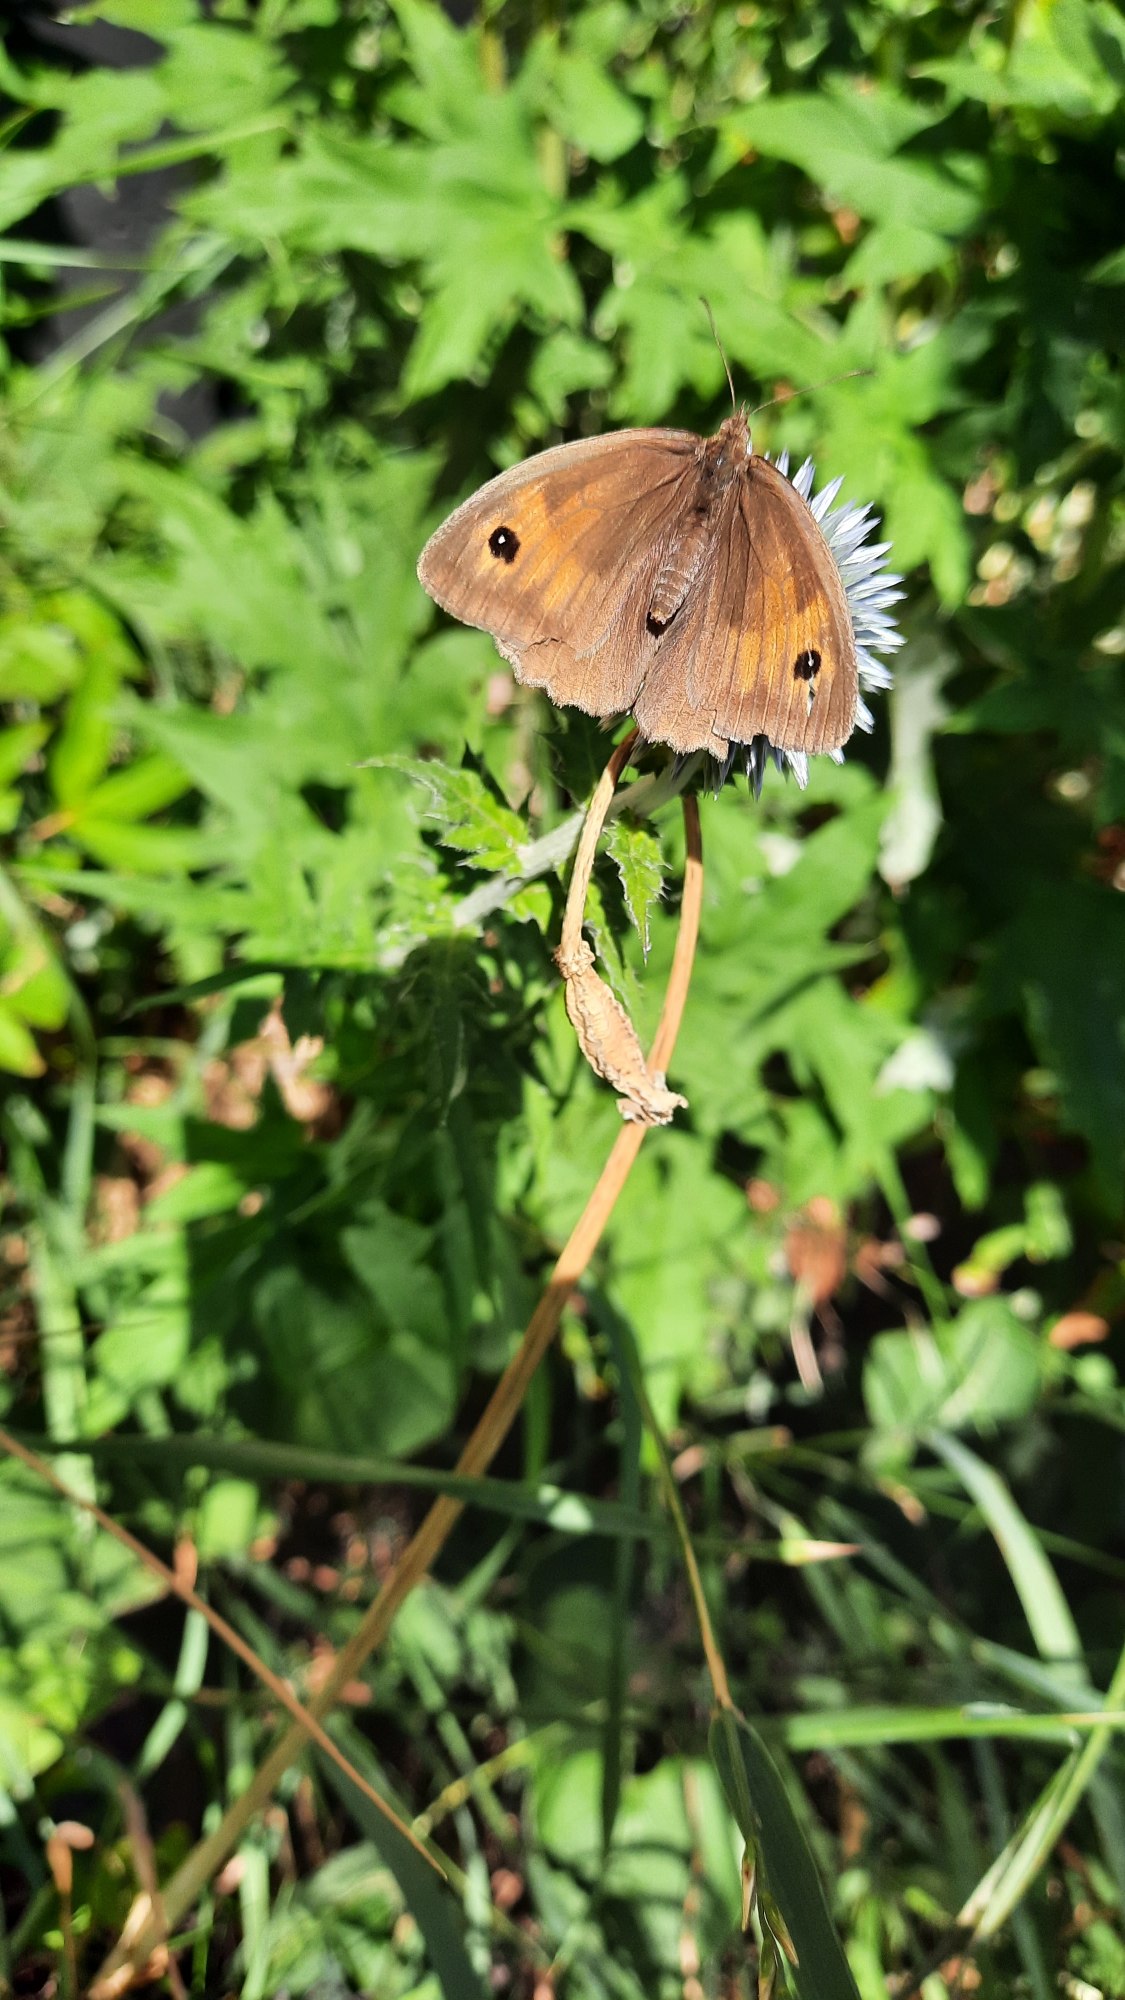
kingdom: Animalia
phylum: Arthropoda
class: Insecta
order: Lepidoptera
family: Nymphalidae
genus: Maniola
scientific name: Maniola jurtina
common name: Græsrandøje
